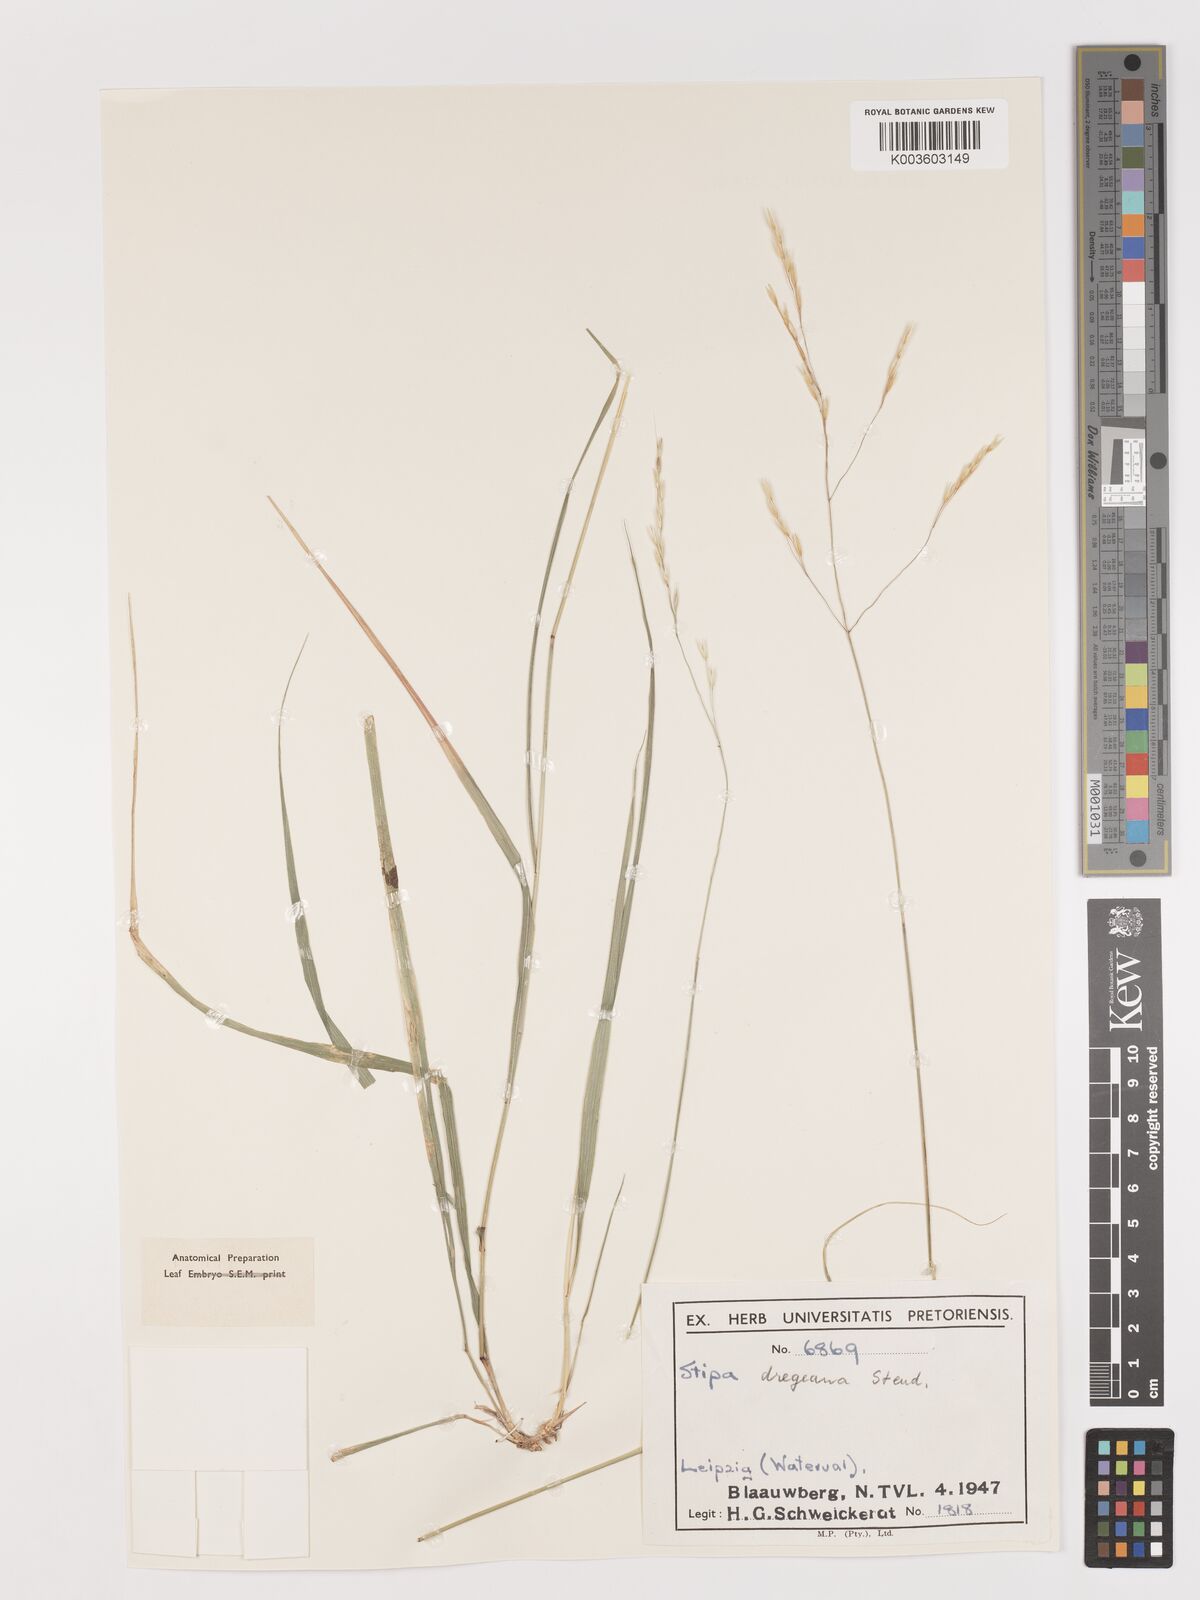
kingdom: Plantae
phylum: Tracheophyta
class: Liliopsida
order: Poales
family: Poaceae
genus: Stipa
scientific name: Stipa dregeana
